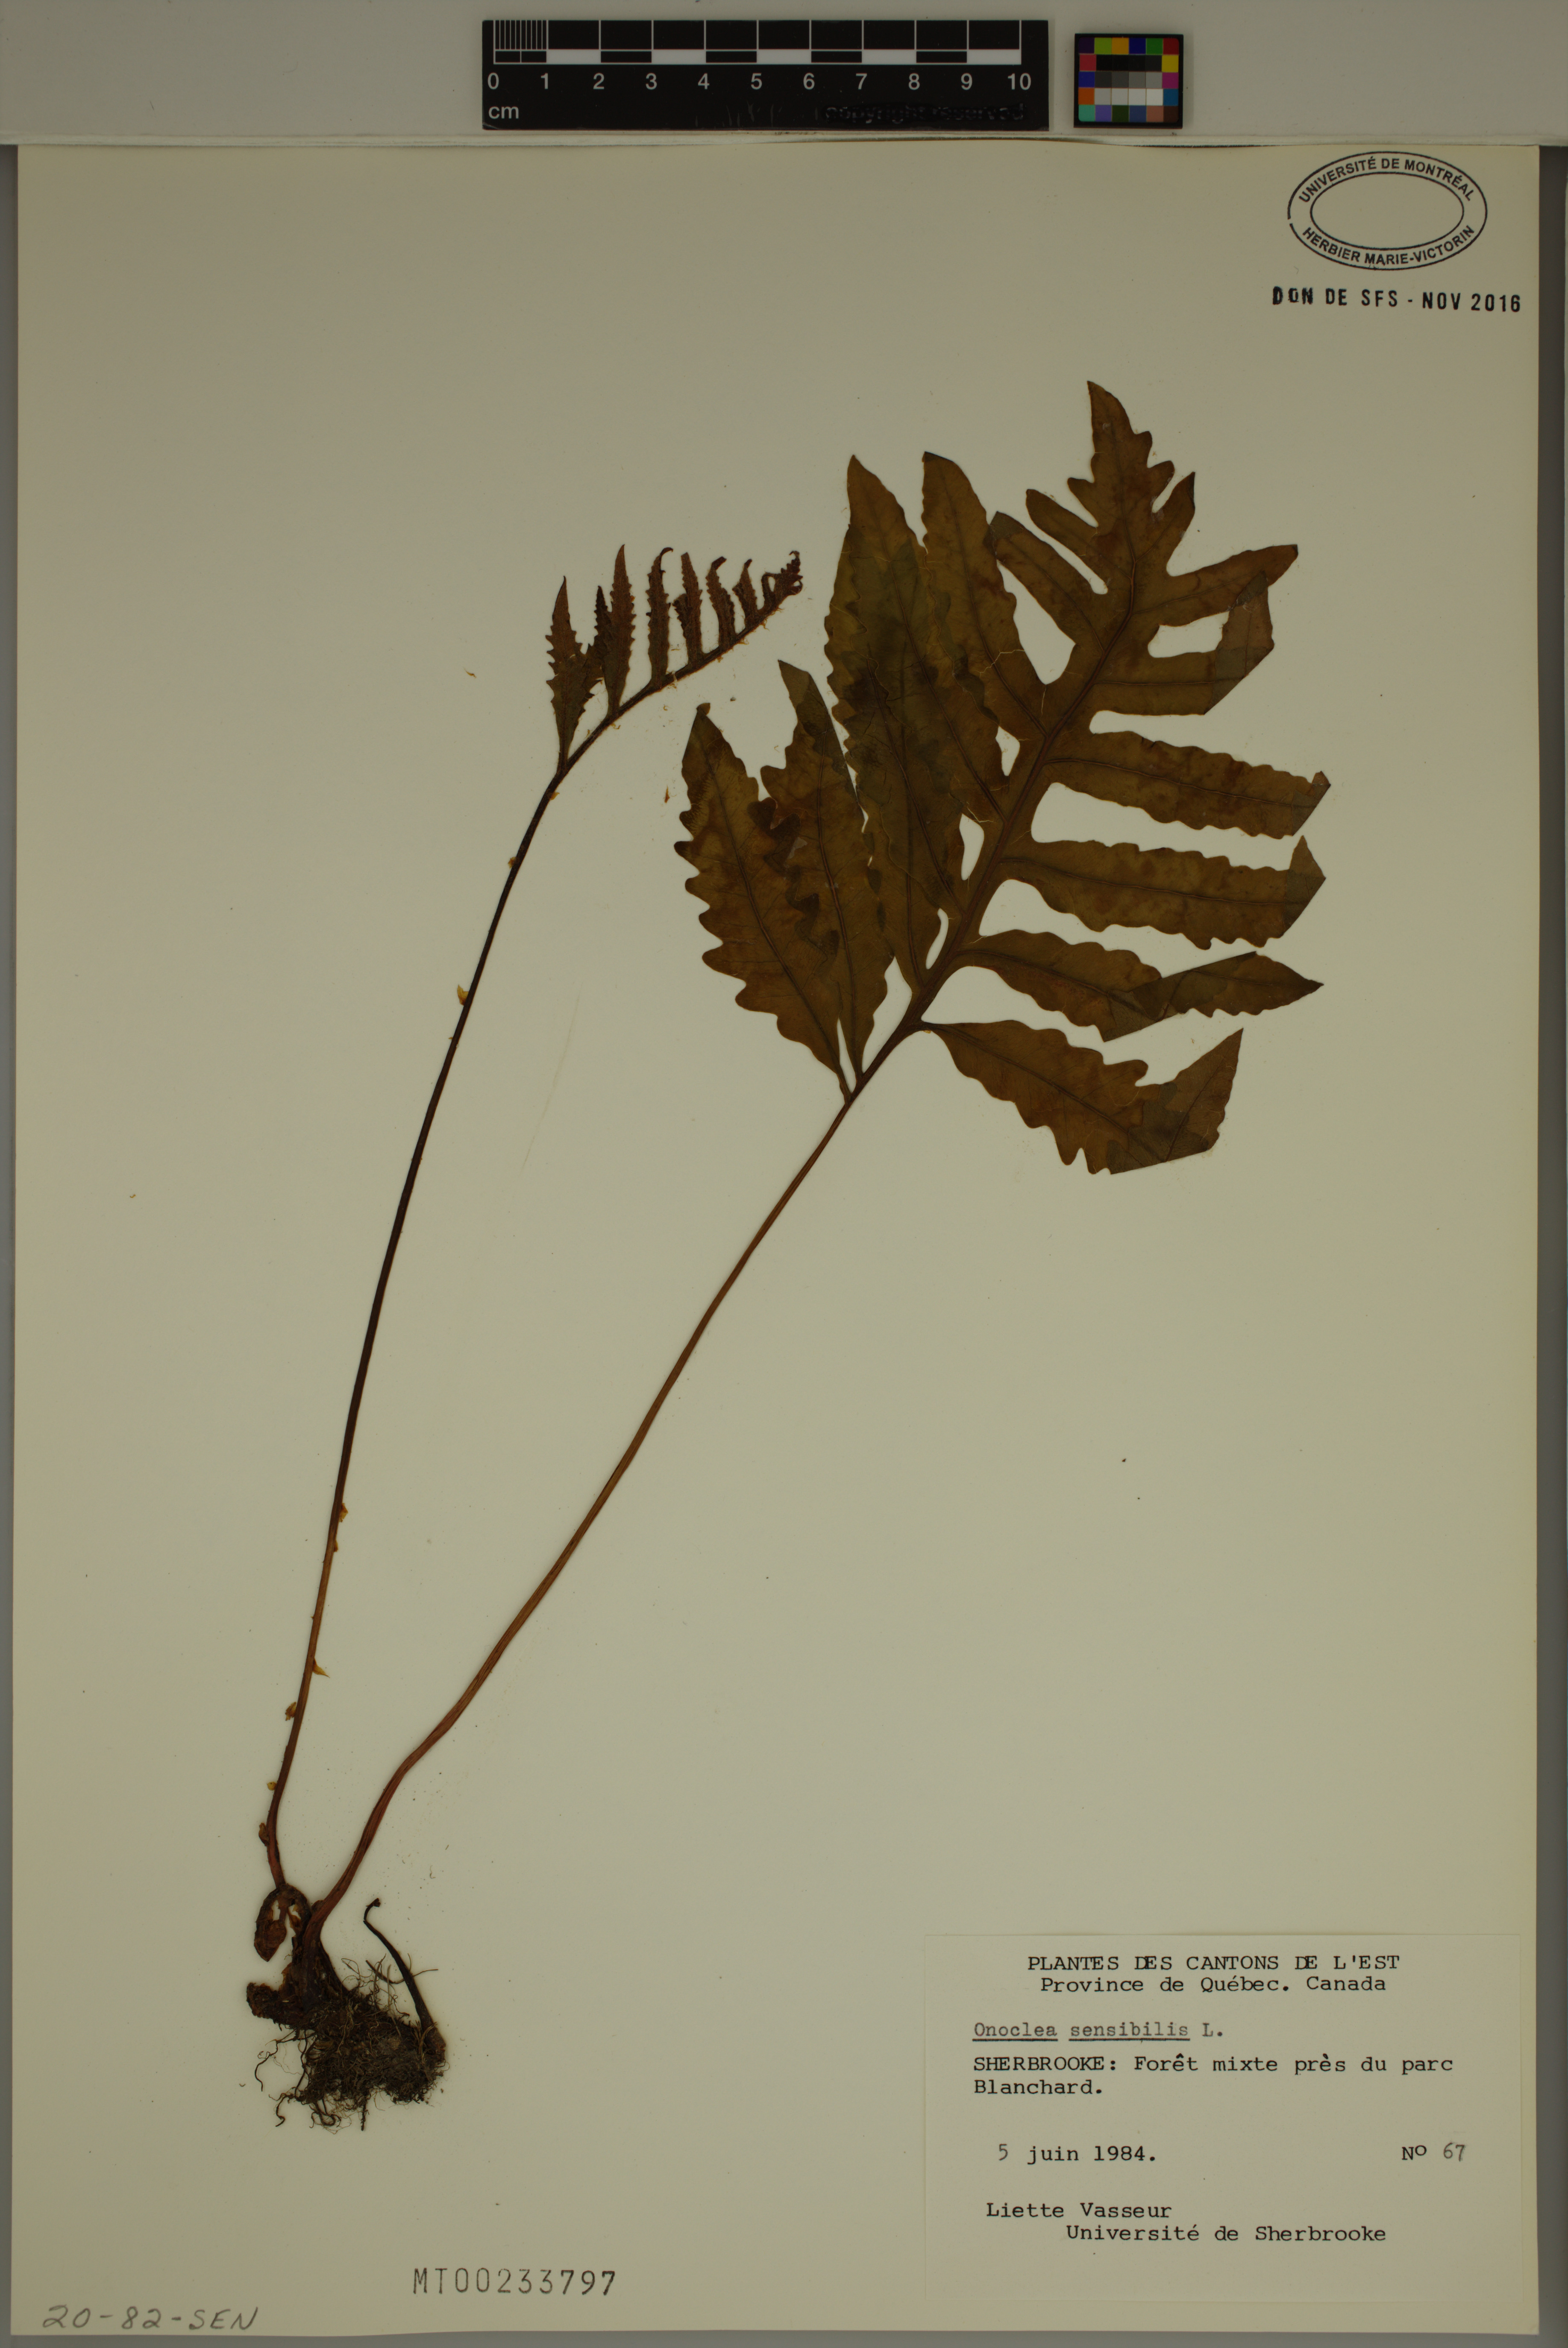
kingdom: Plantae
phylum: Tracheophyta
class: Polypodiopsida
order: Polypodiales
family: Onocleaceae
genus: Onoclea
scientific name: Onoclea sensibilis
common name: Sensitive fern
